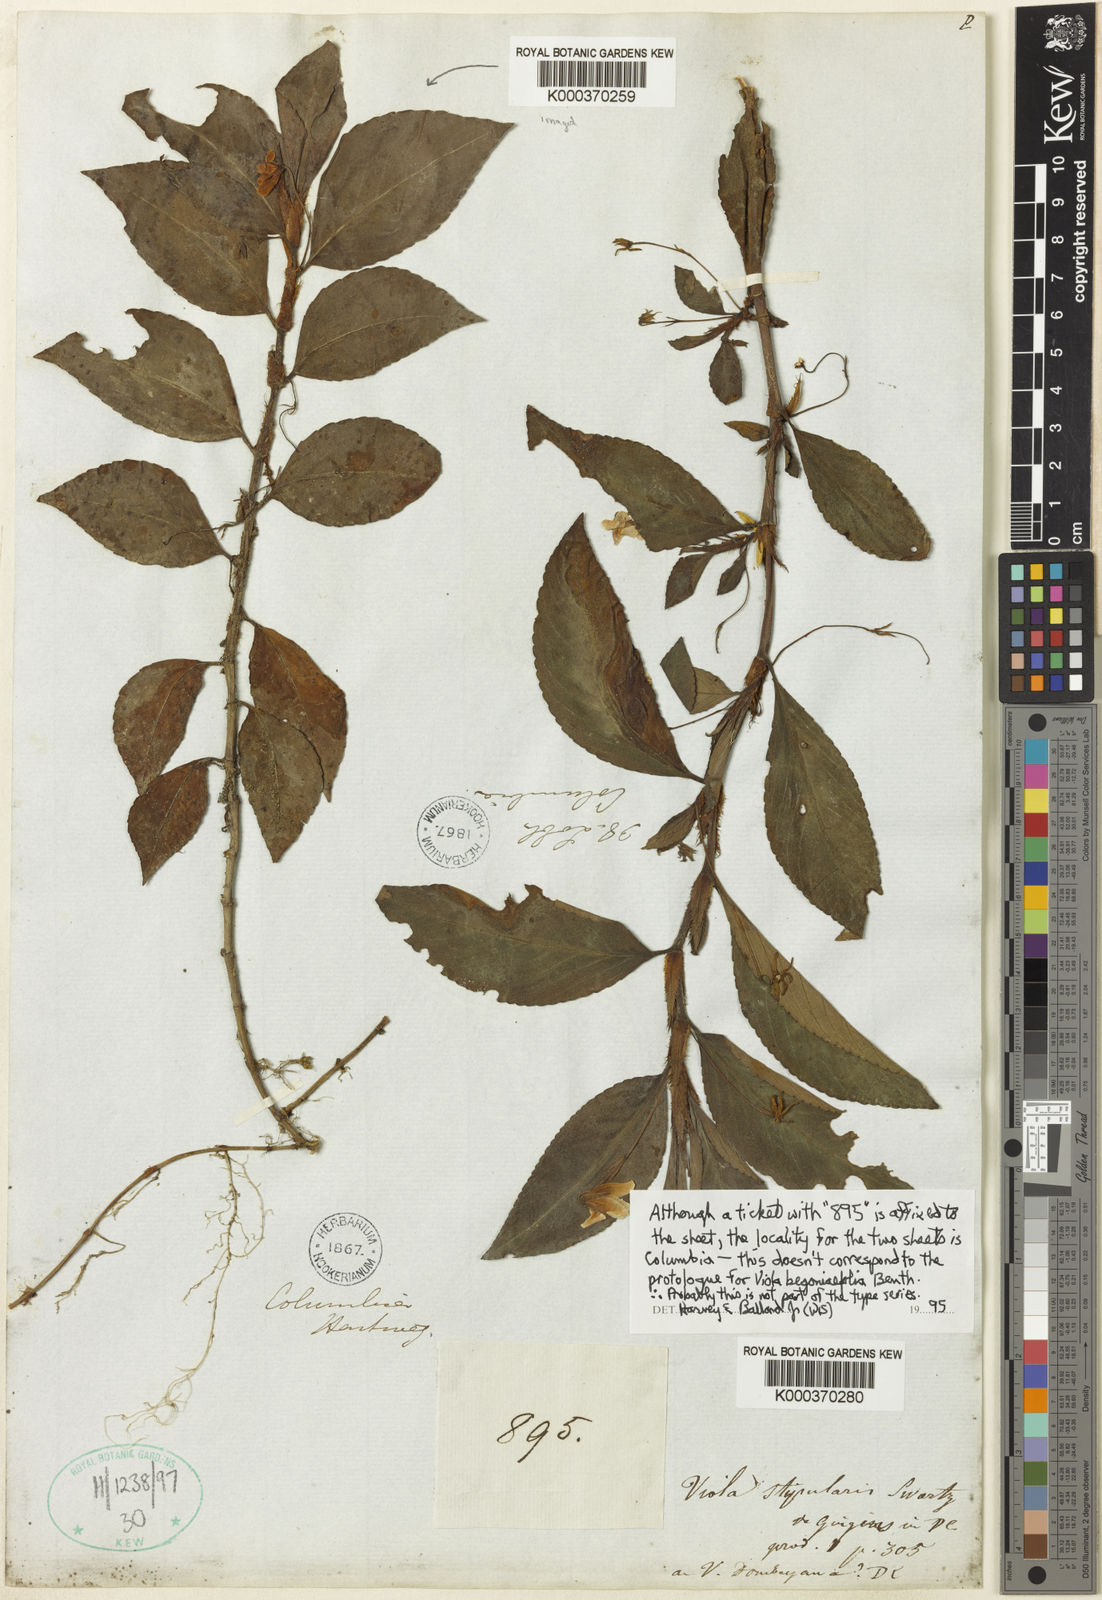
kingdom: Plantae
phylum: Tracheophyta
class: Magnoliopsida
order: Malpighiales
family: Violaceae
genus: Viola
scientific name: Viola stipularis
